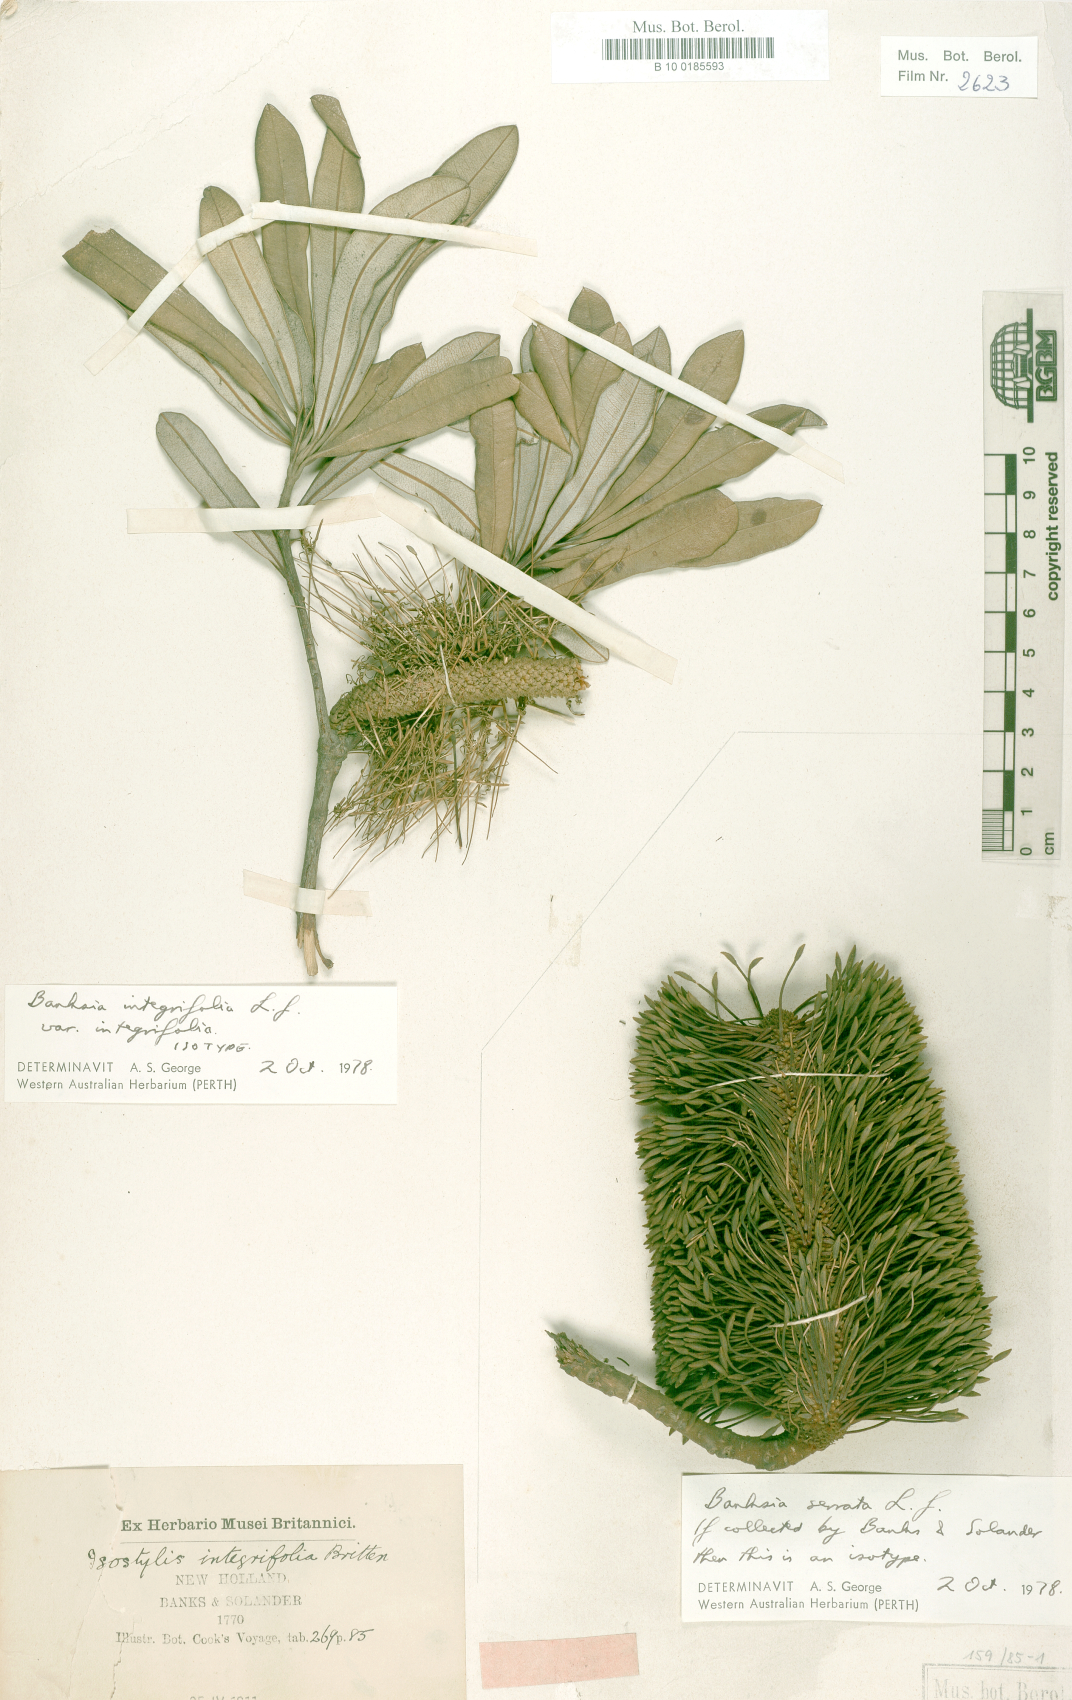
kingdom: Plantae
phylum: Tracheophyta
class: Magnoliopsida
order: Proteales
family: Proteaceae
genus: Banksia
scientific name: Banksia integrifolia
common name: White-honeysuckle
